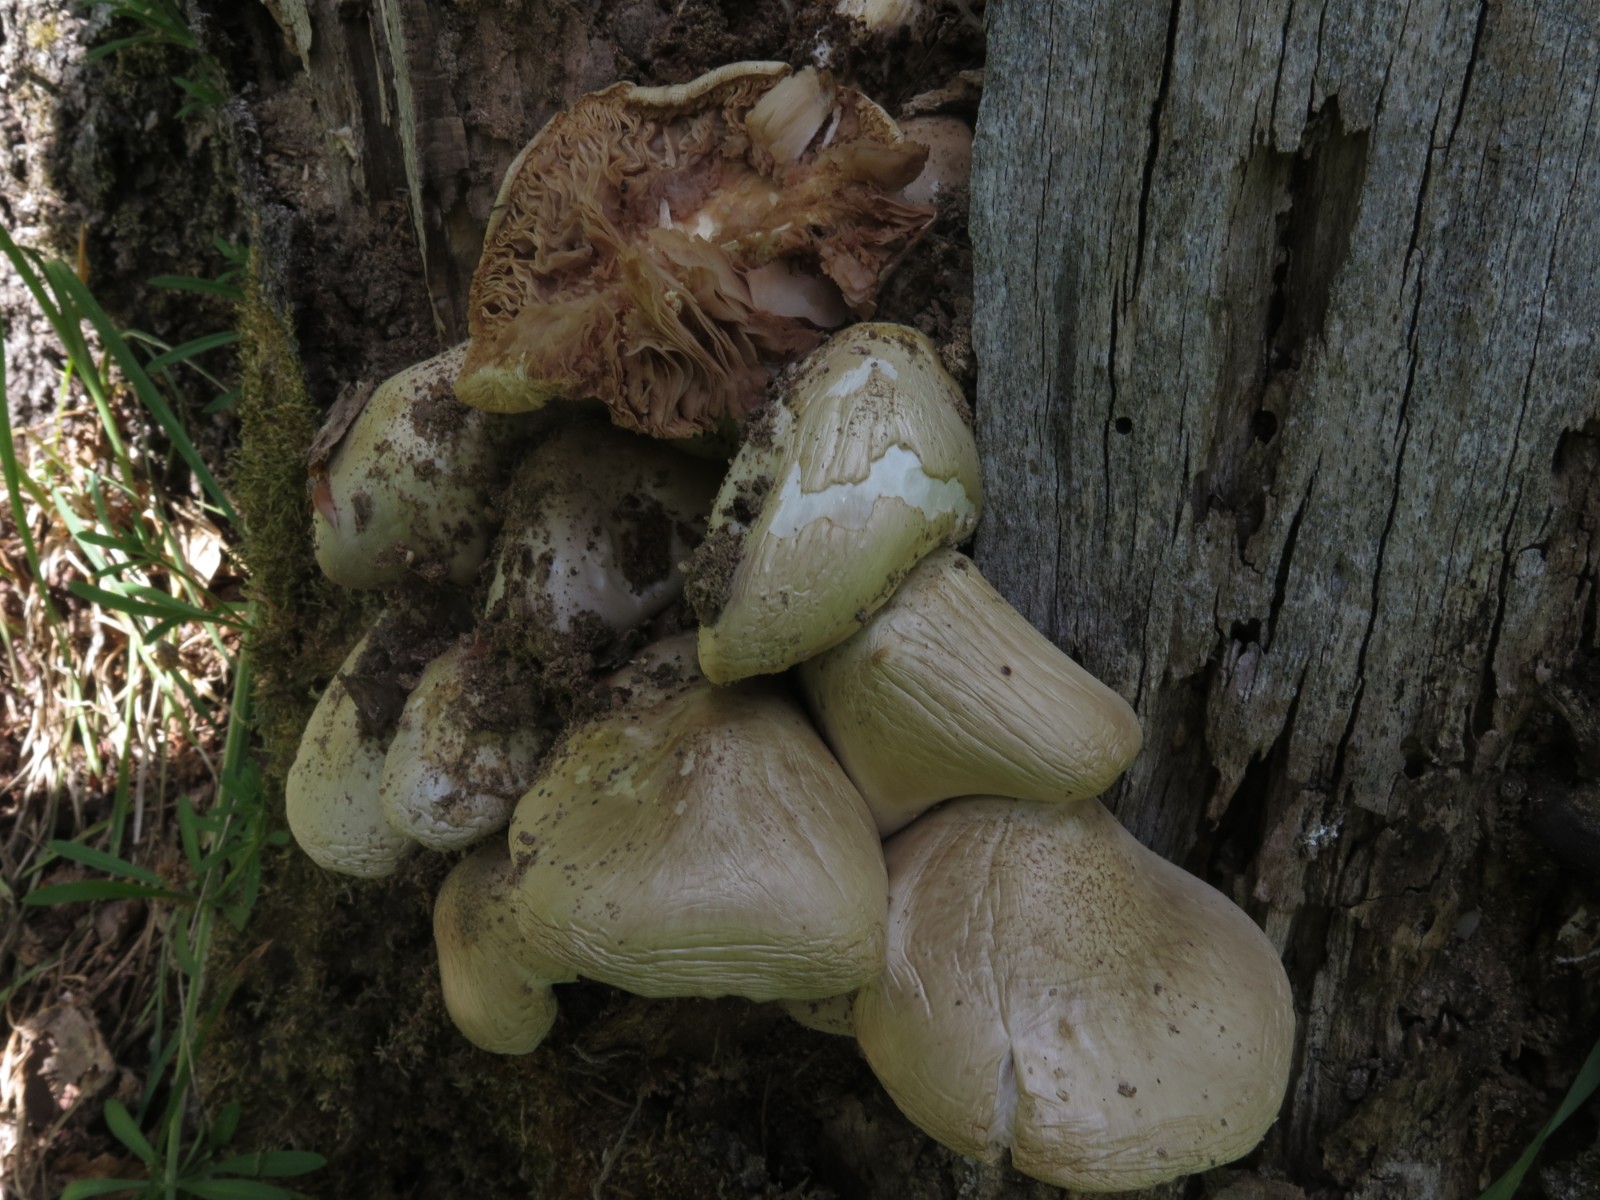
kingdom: Fungi
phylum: Basidiomycota
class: Agaricomycetes
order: Agaricales
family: Tricholomataceae
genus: Megacollybia
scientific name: Megacollybia platyphylla
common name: bredbladet væbnerhat
